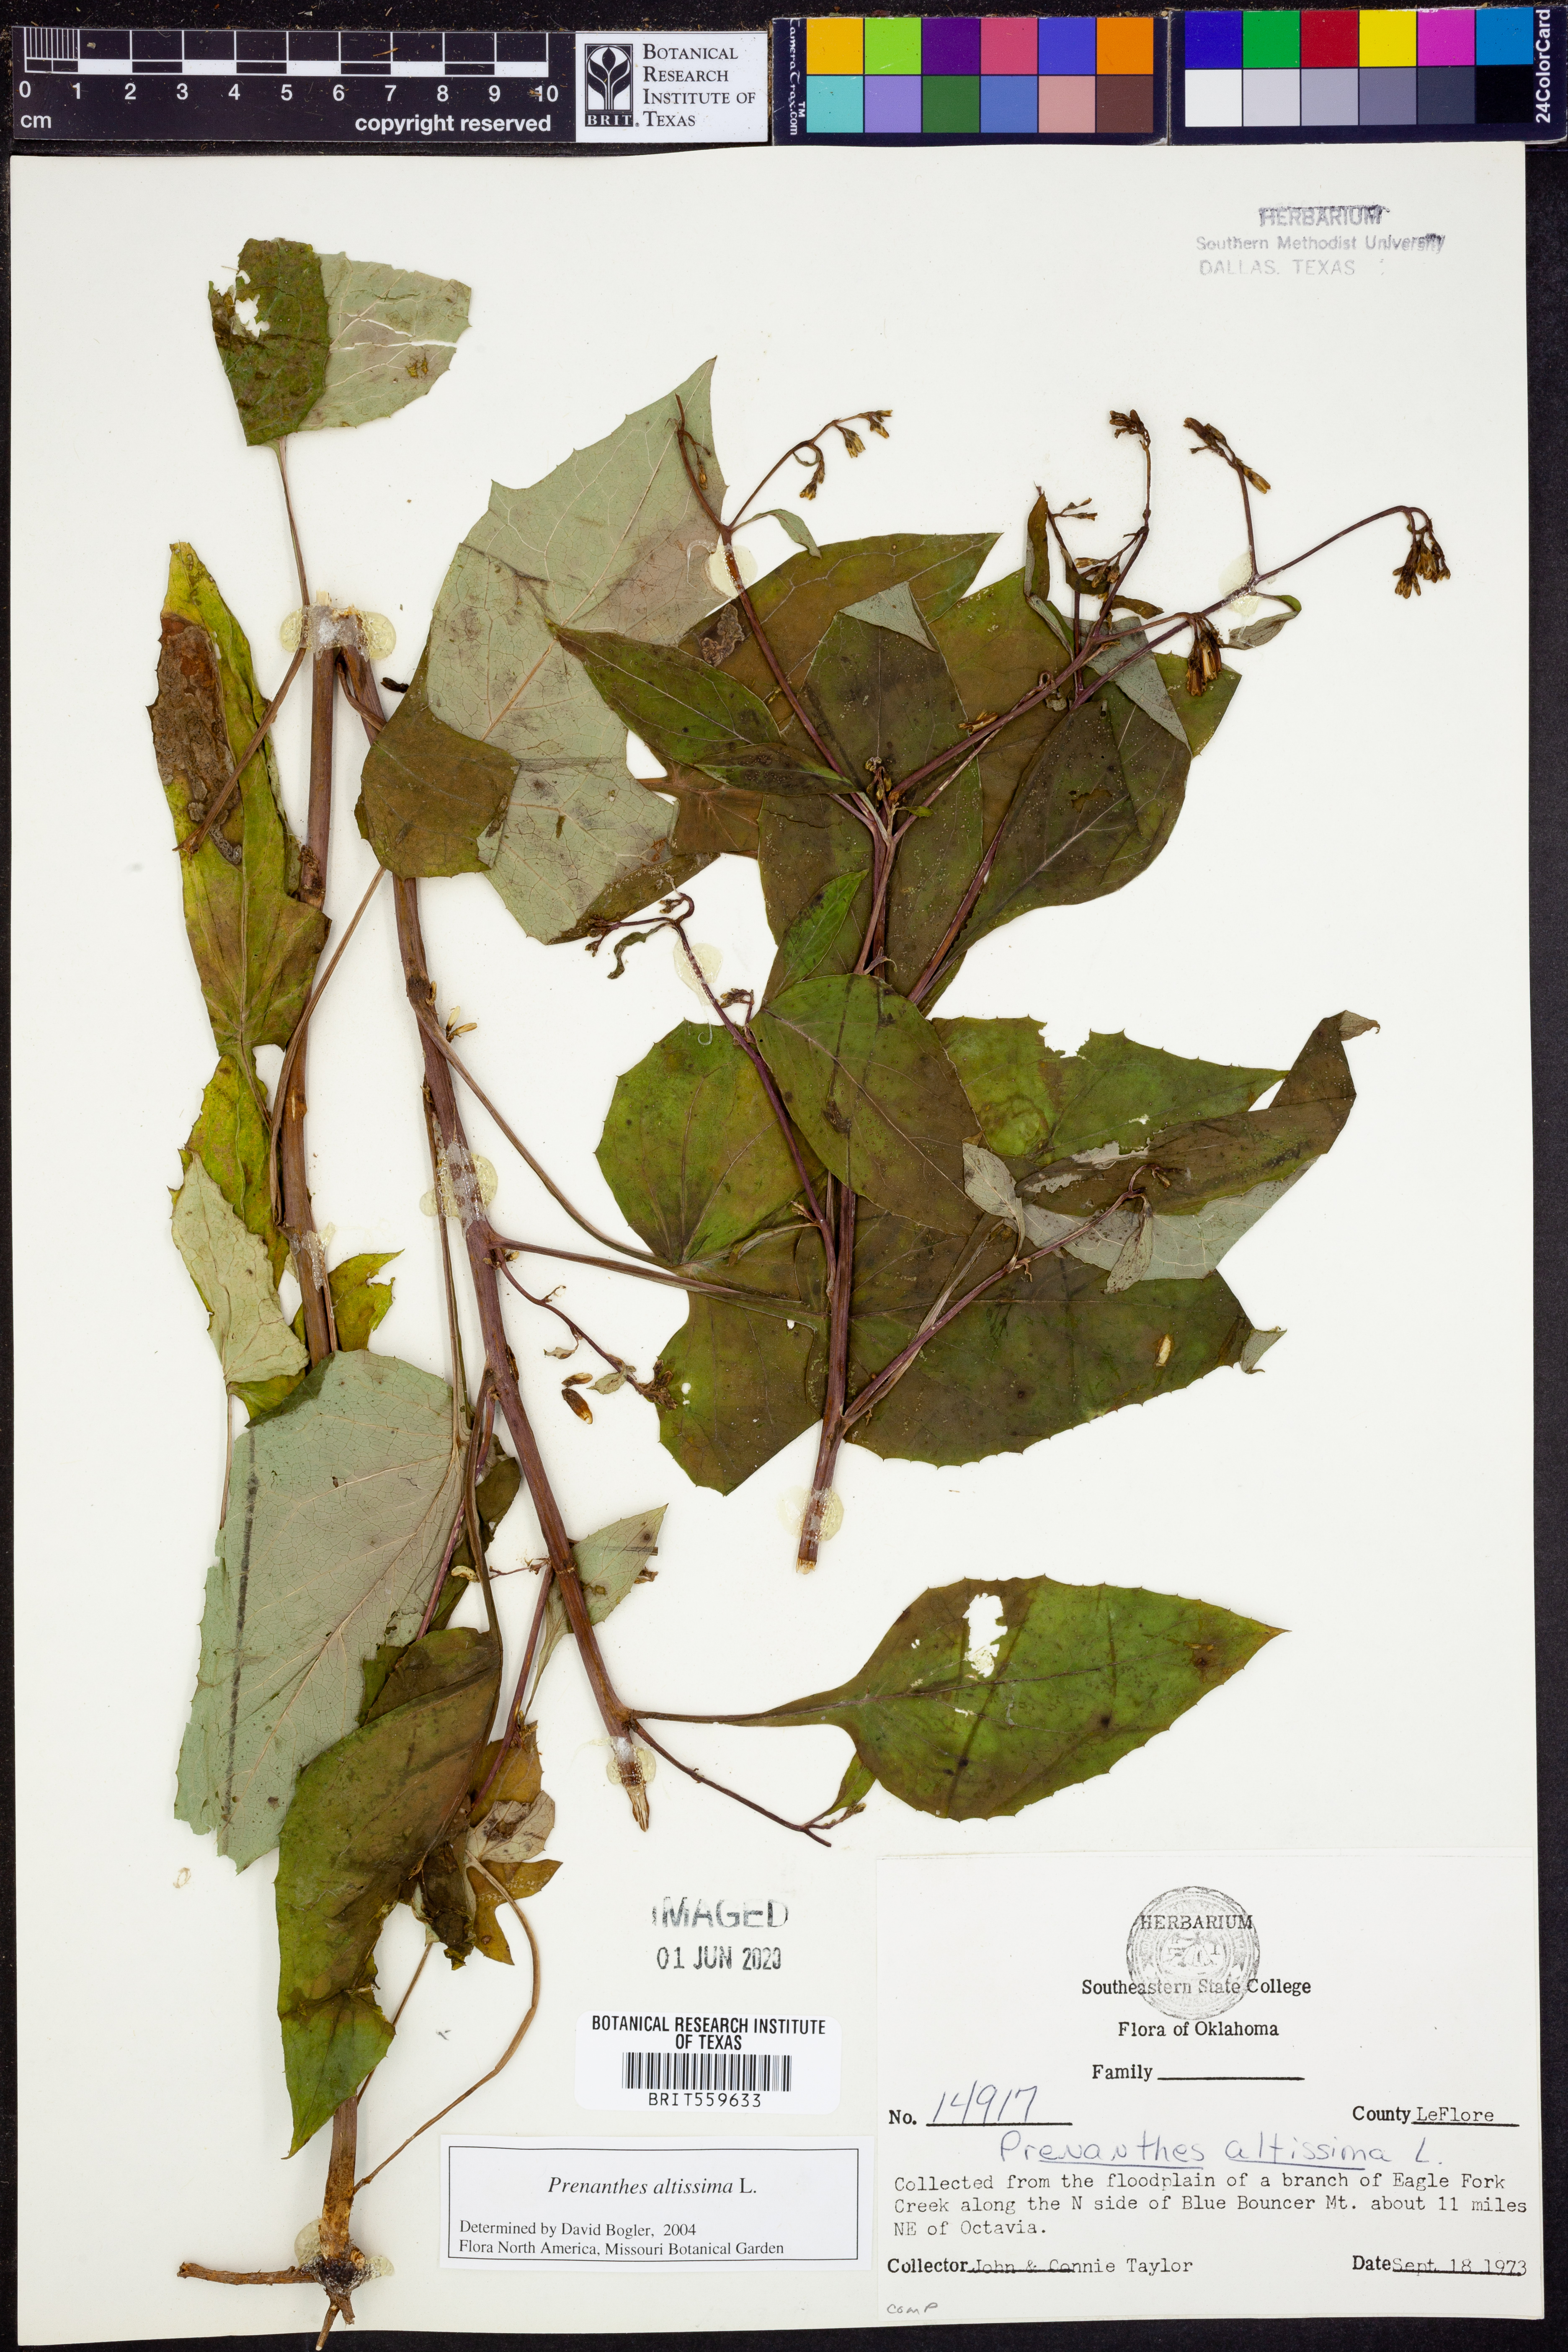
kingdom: Plantae
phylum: Tracheophyta
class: Magnoliopsida
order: Asterales
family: Asteraceae
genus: Lactuca
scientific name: Lactuca quercina
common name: Wild lettuce
